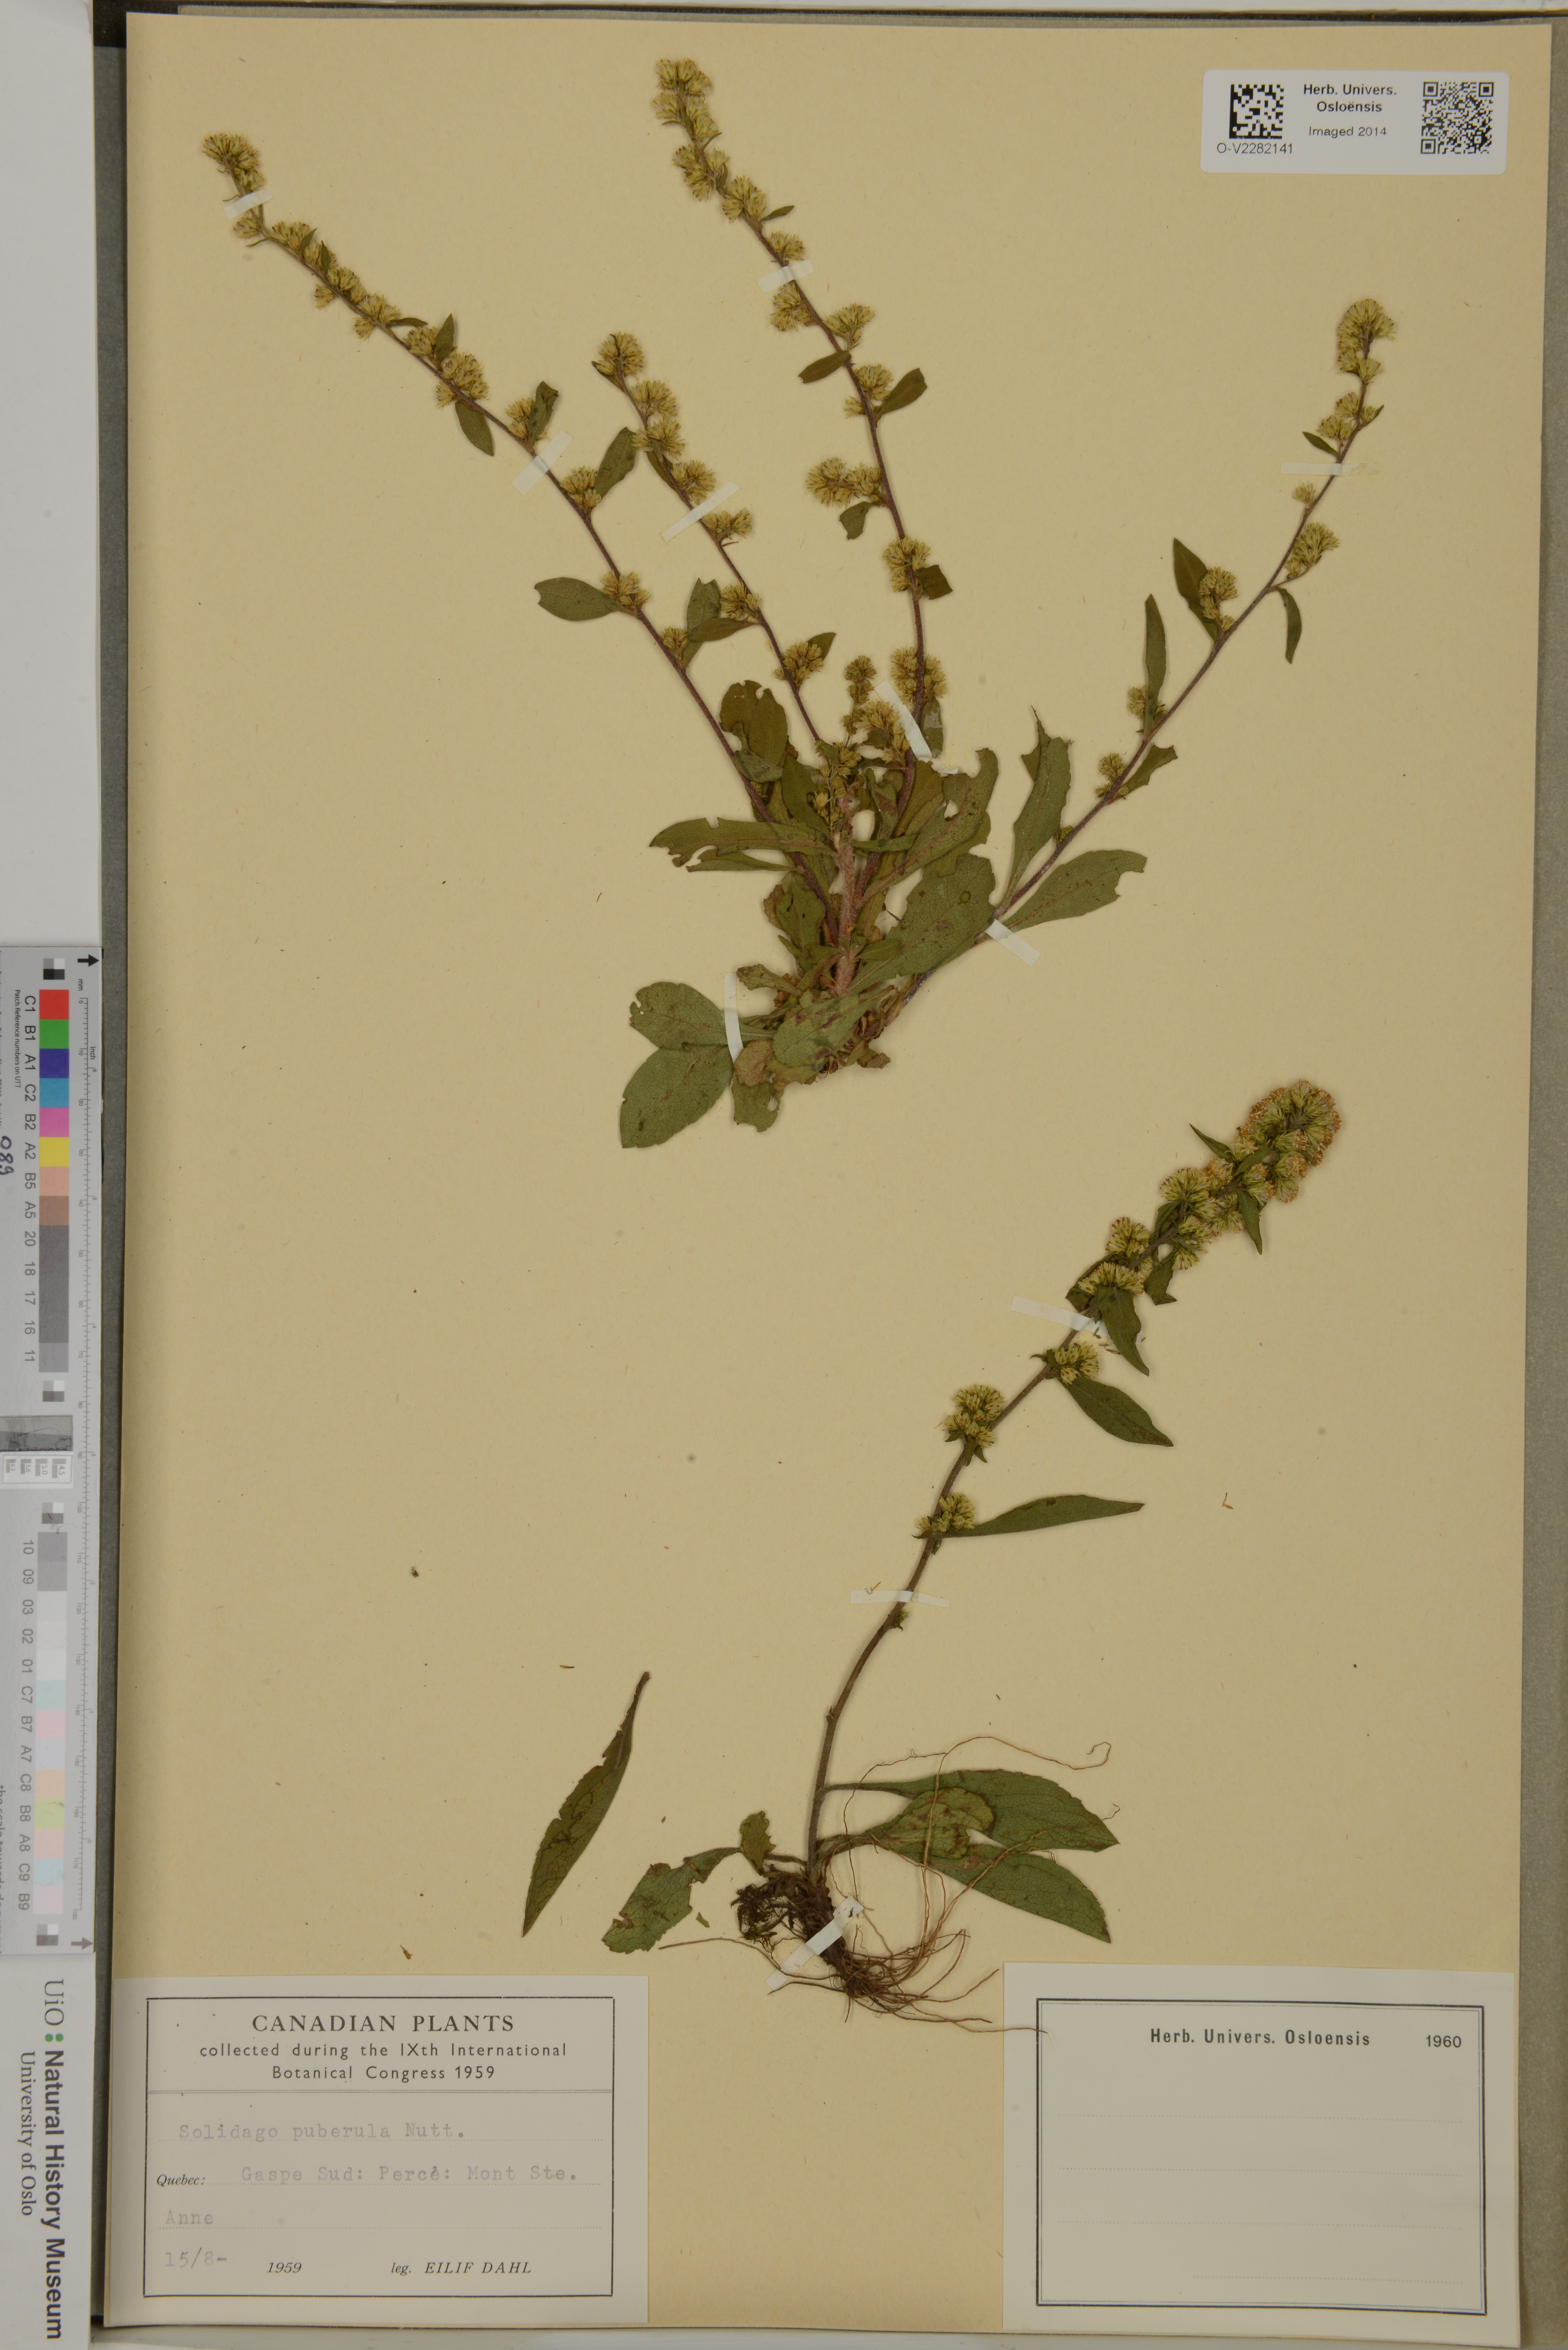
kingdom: Plantae
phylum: Tracheophyta
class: Magnoliopsida
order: Asterales
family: Asteraceae
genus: Solidago
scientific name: Solidago puberula
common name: Downy goldenrod
